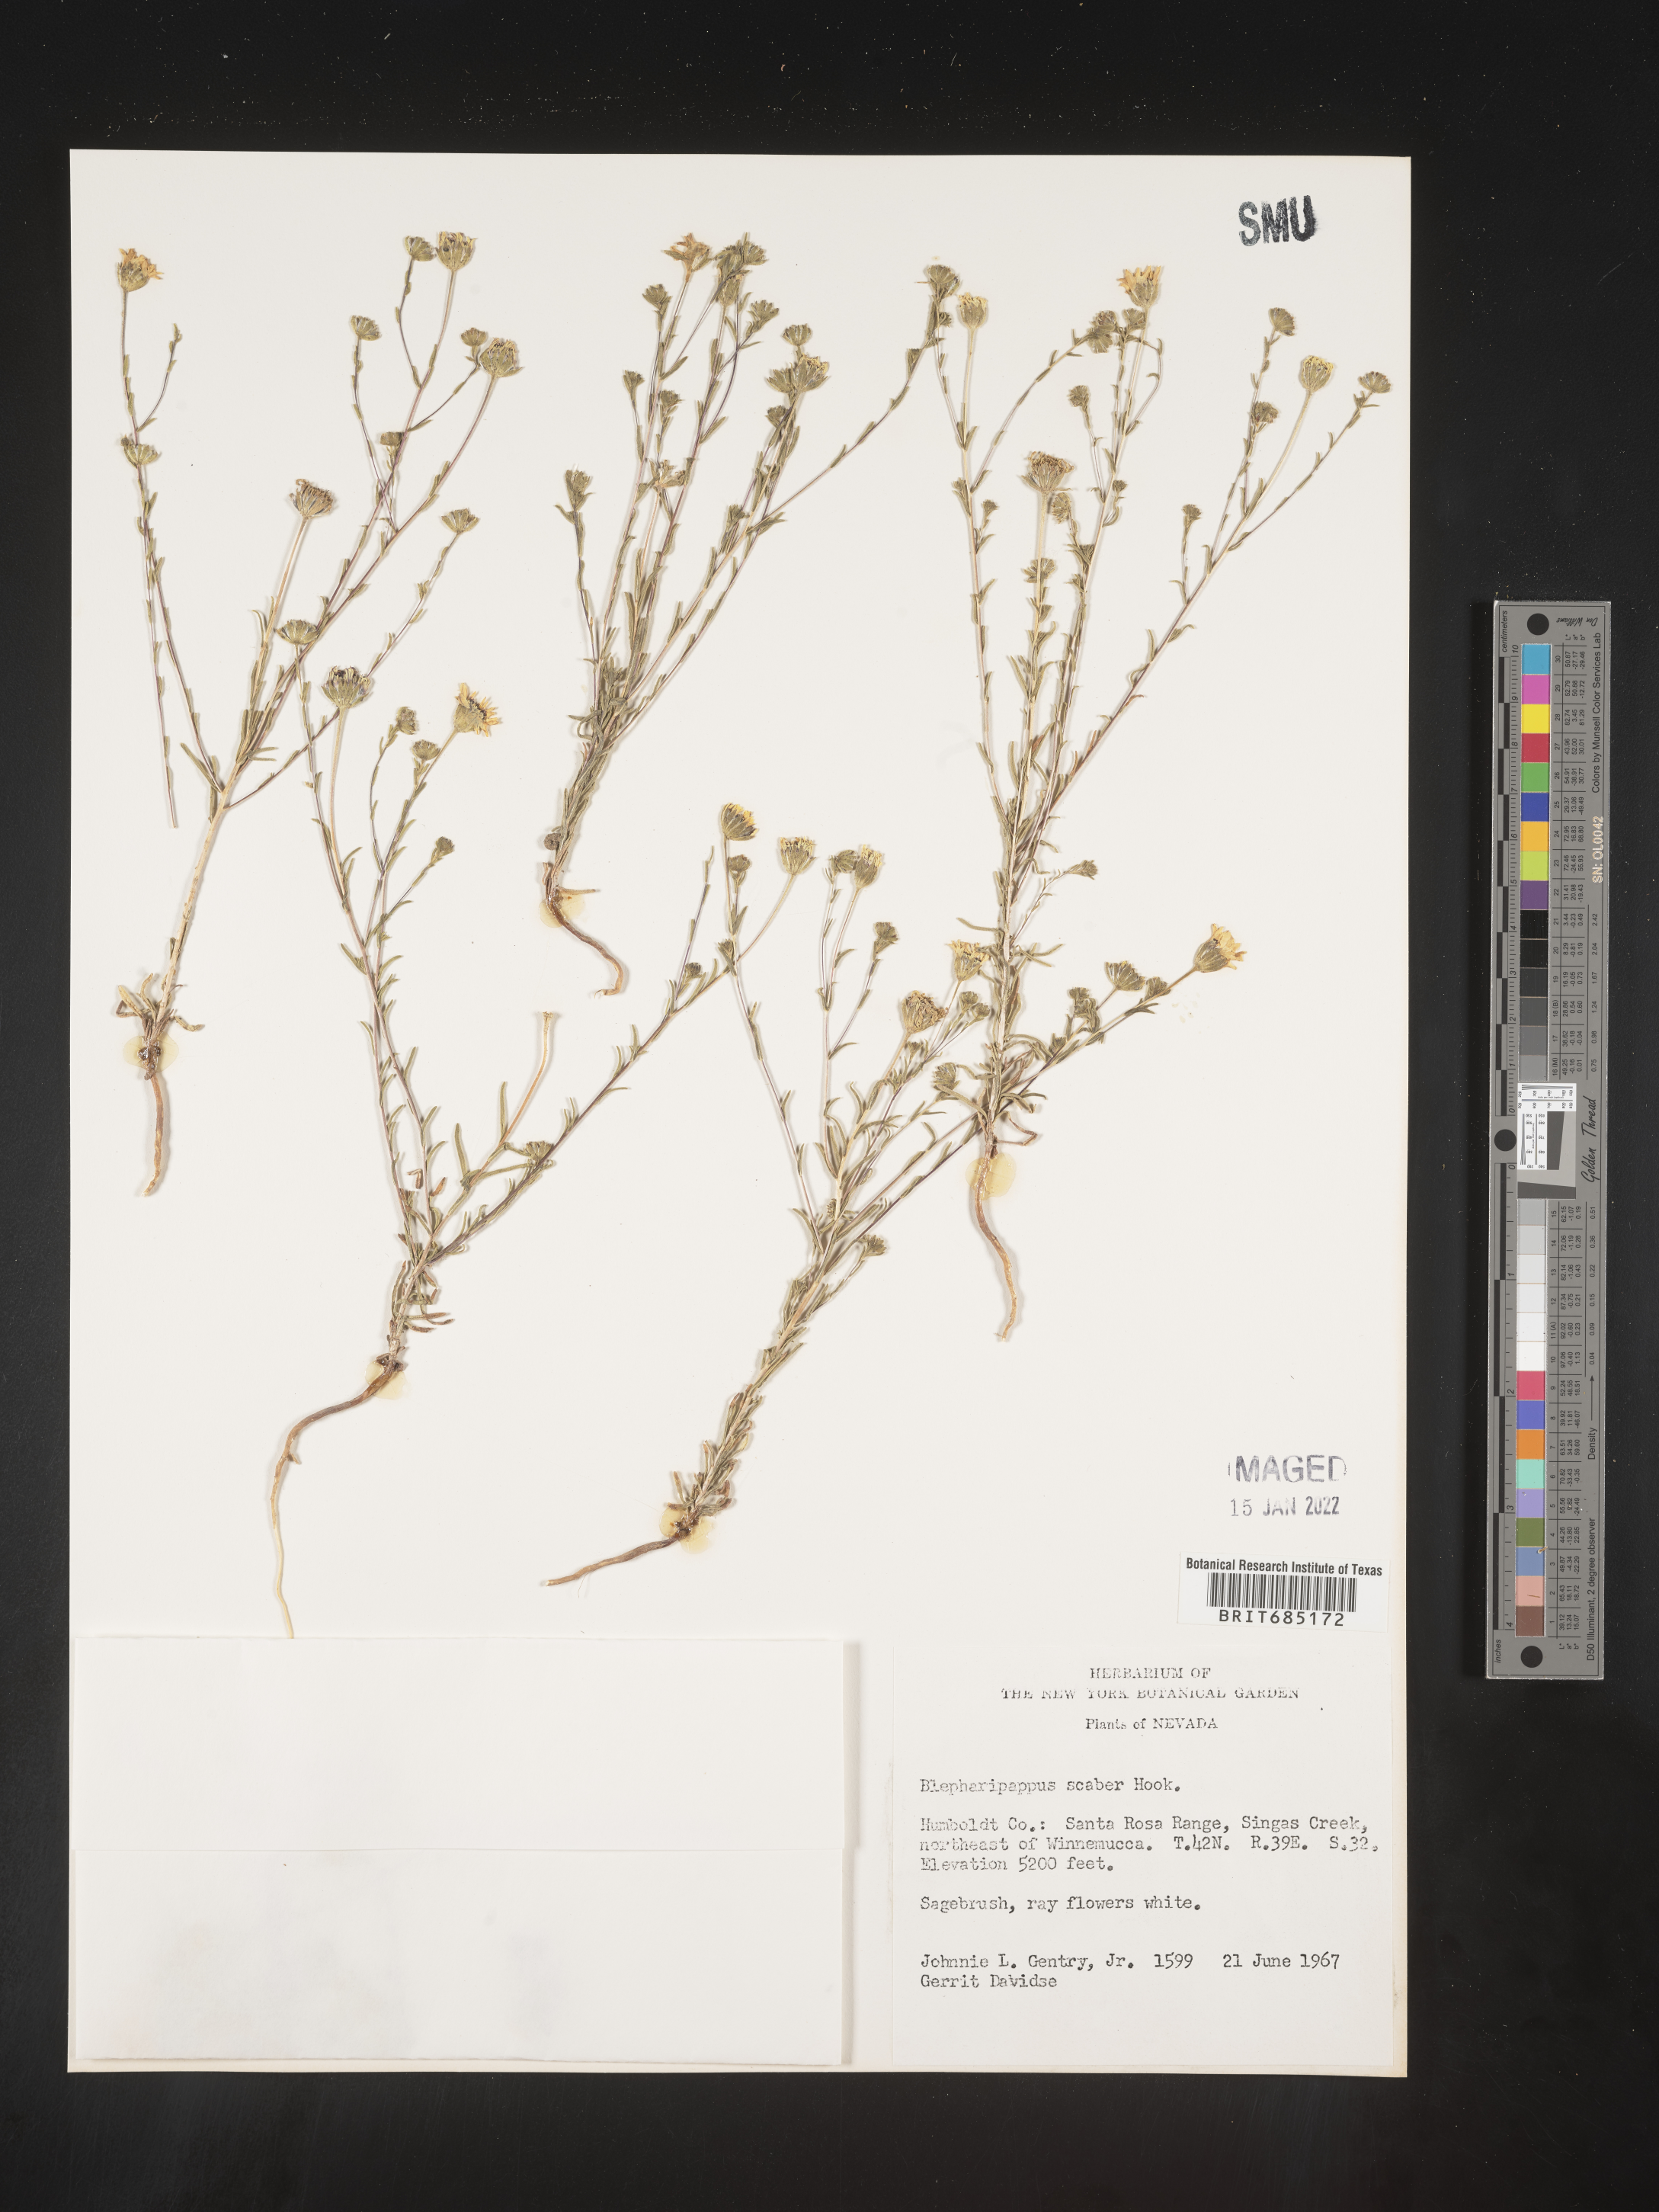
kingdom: Plantae
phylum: Tracheophyta
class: Magnoliopsida
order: Asterales
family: Asteraceae
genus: Blepharipappus
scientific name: Blepharipappus
